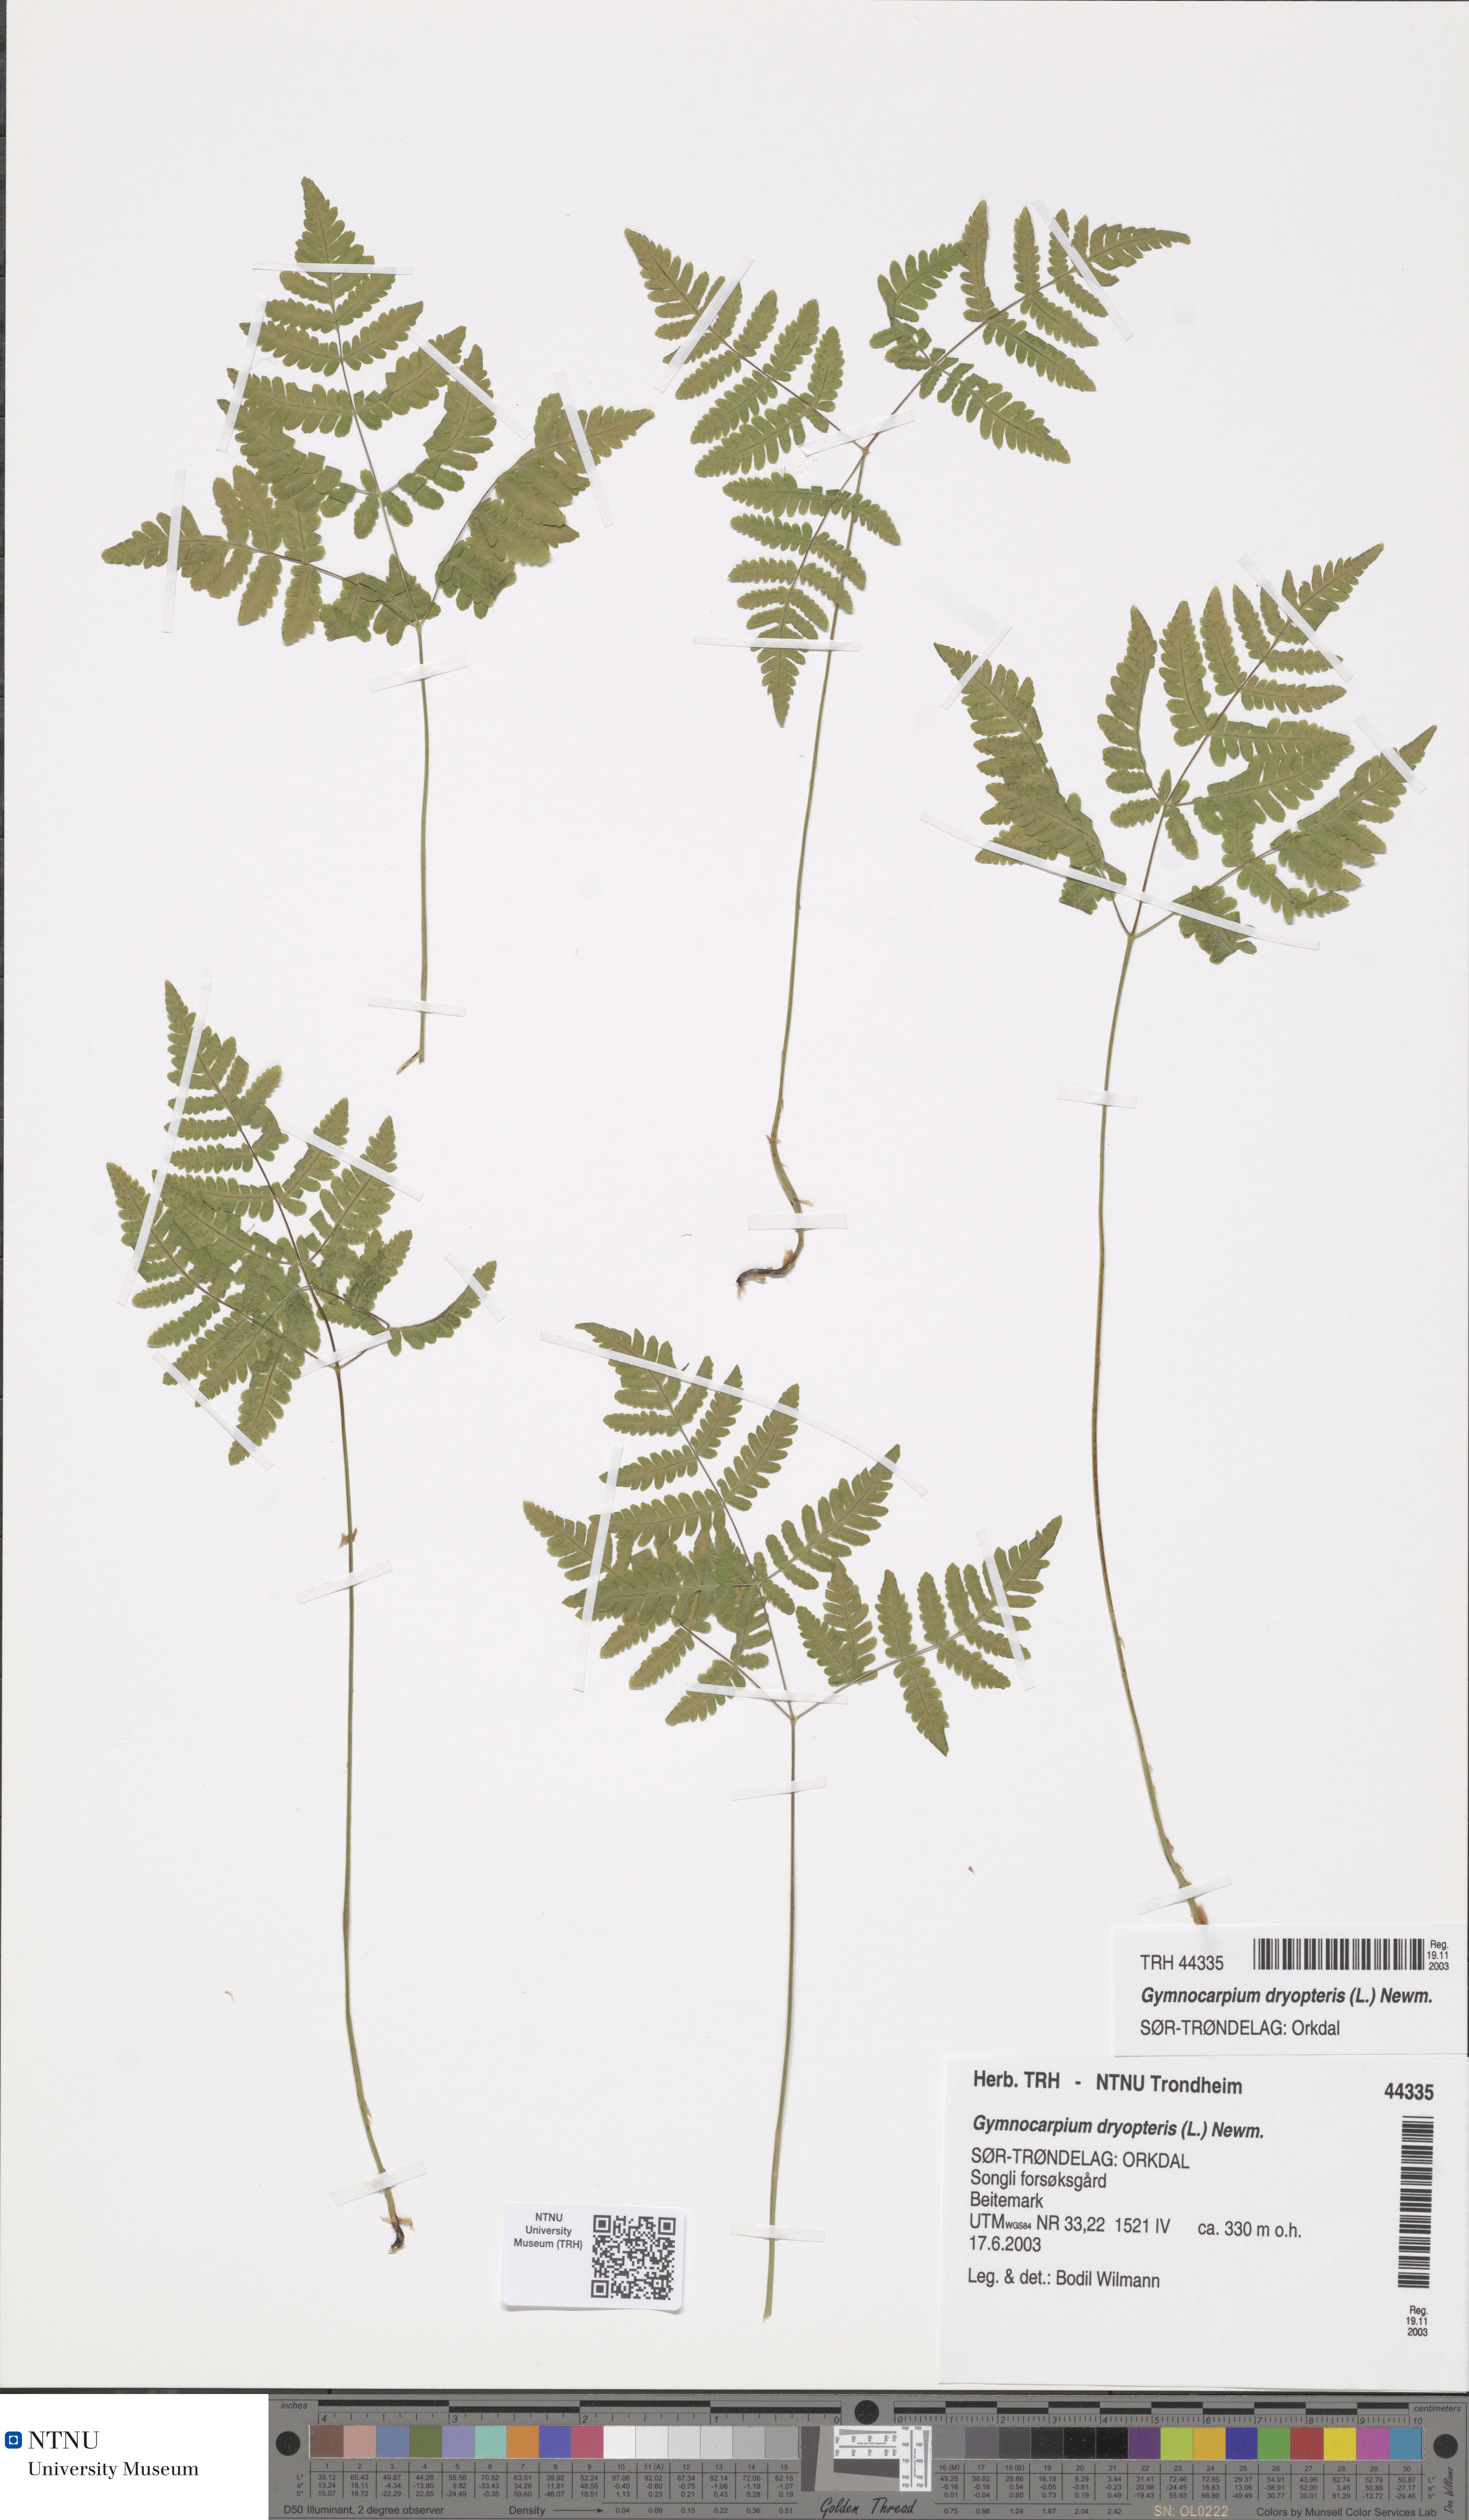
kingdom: Plantae
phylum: Tracheophyta
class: Polypodiopsida
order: Polypodiales
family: Cystopteridaceae
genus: Gymnocarpium
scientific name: Gymnocarpium dryopteris
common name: Oak fern
